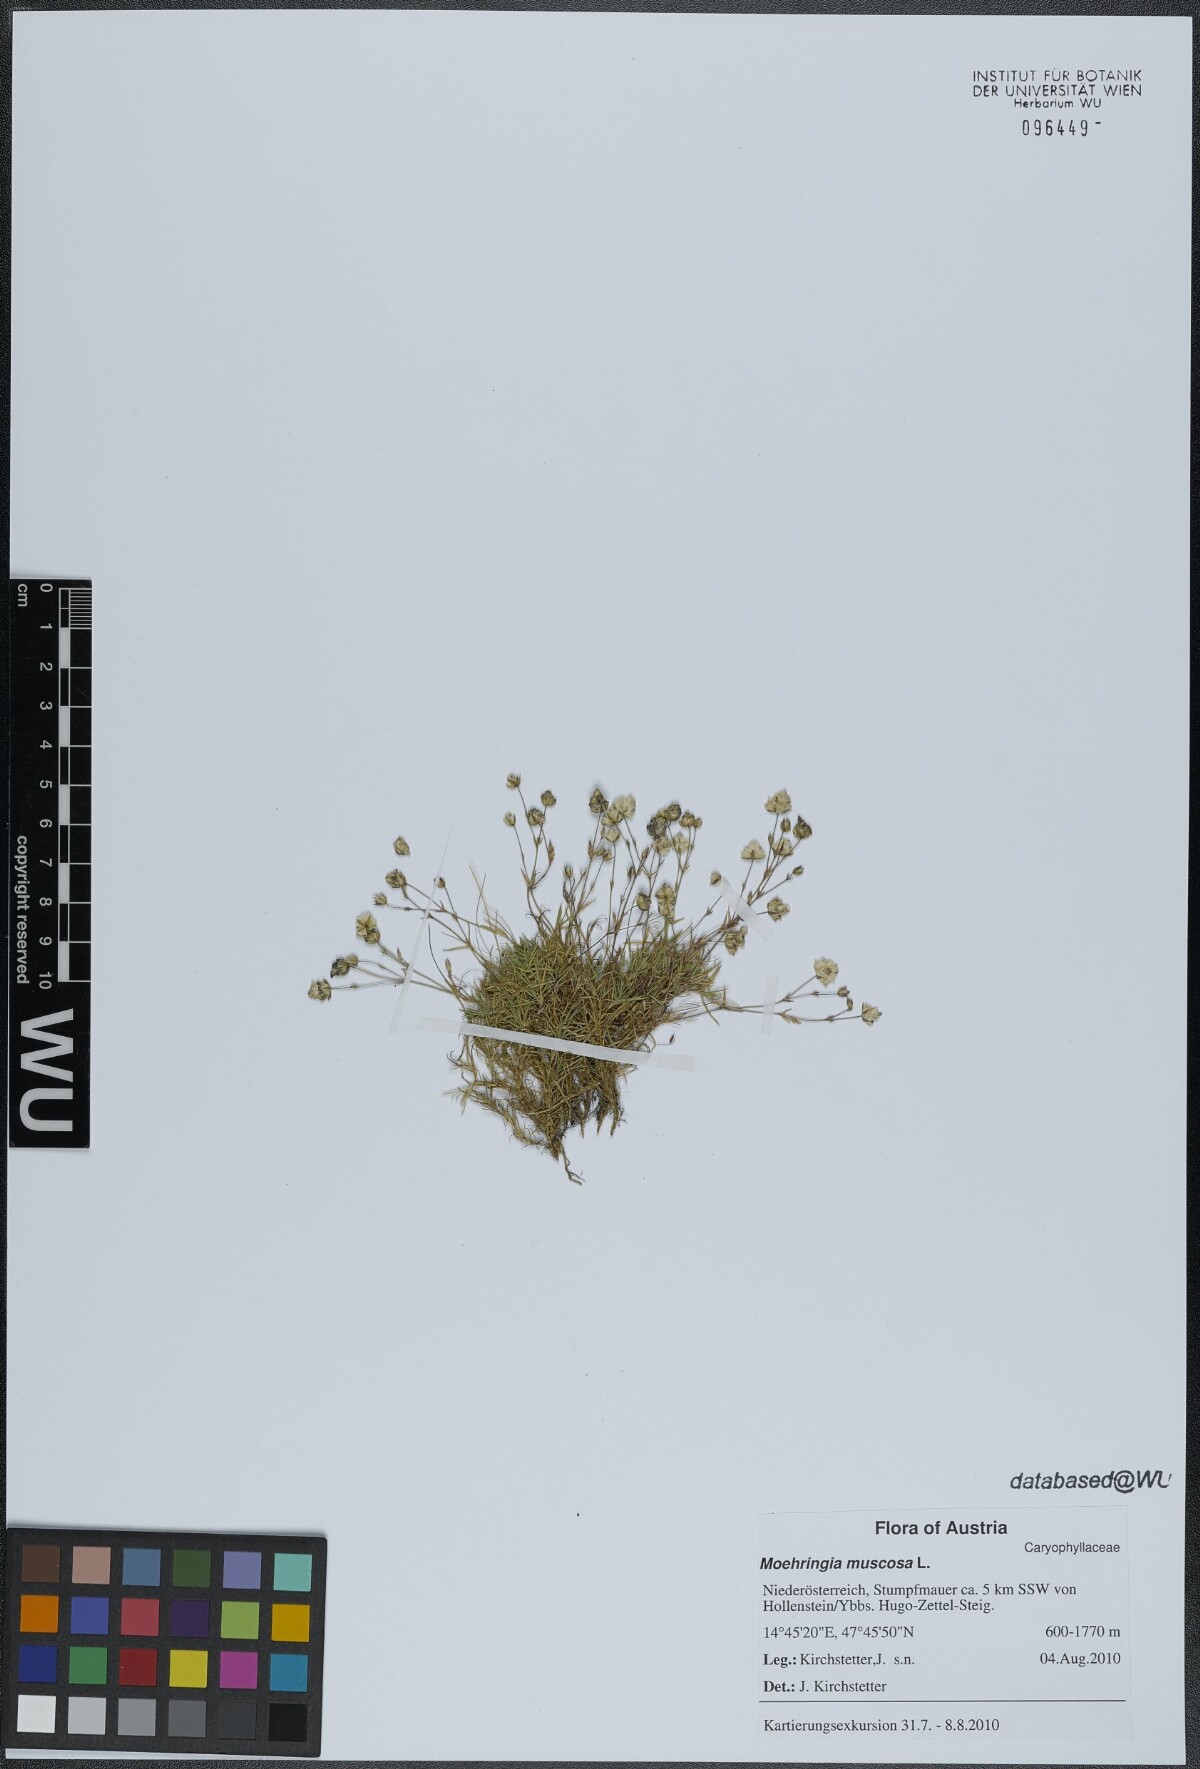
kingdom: Plantae
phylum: Tracheophyta
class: Magnoliopsida
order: Caryophyllales
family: Caryophyllaceae
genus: Moehringia
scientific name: Moehringia muscosa
